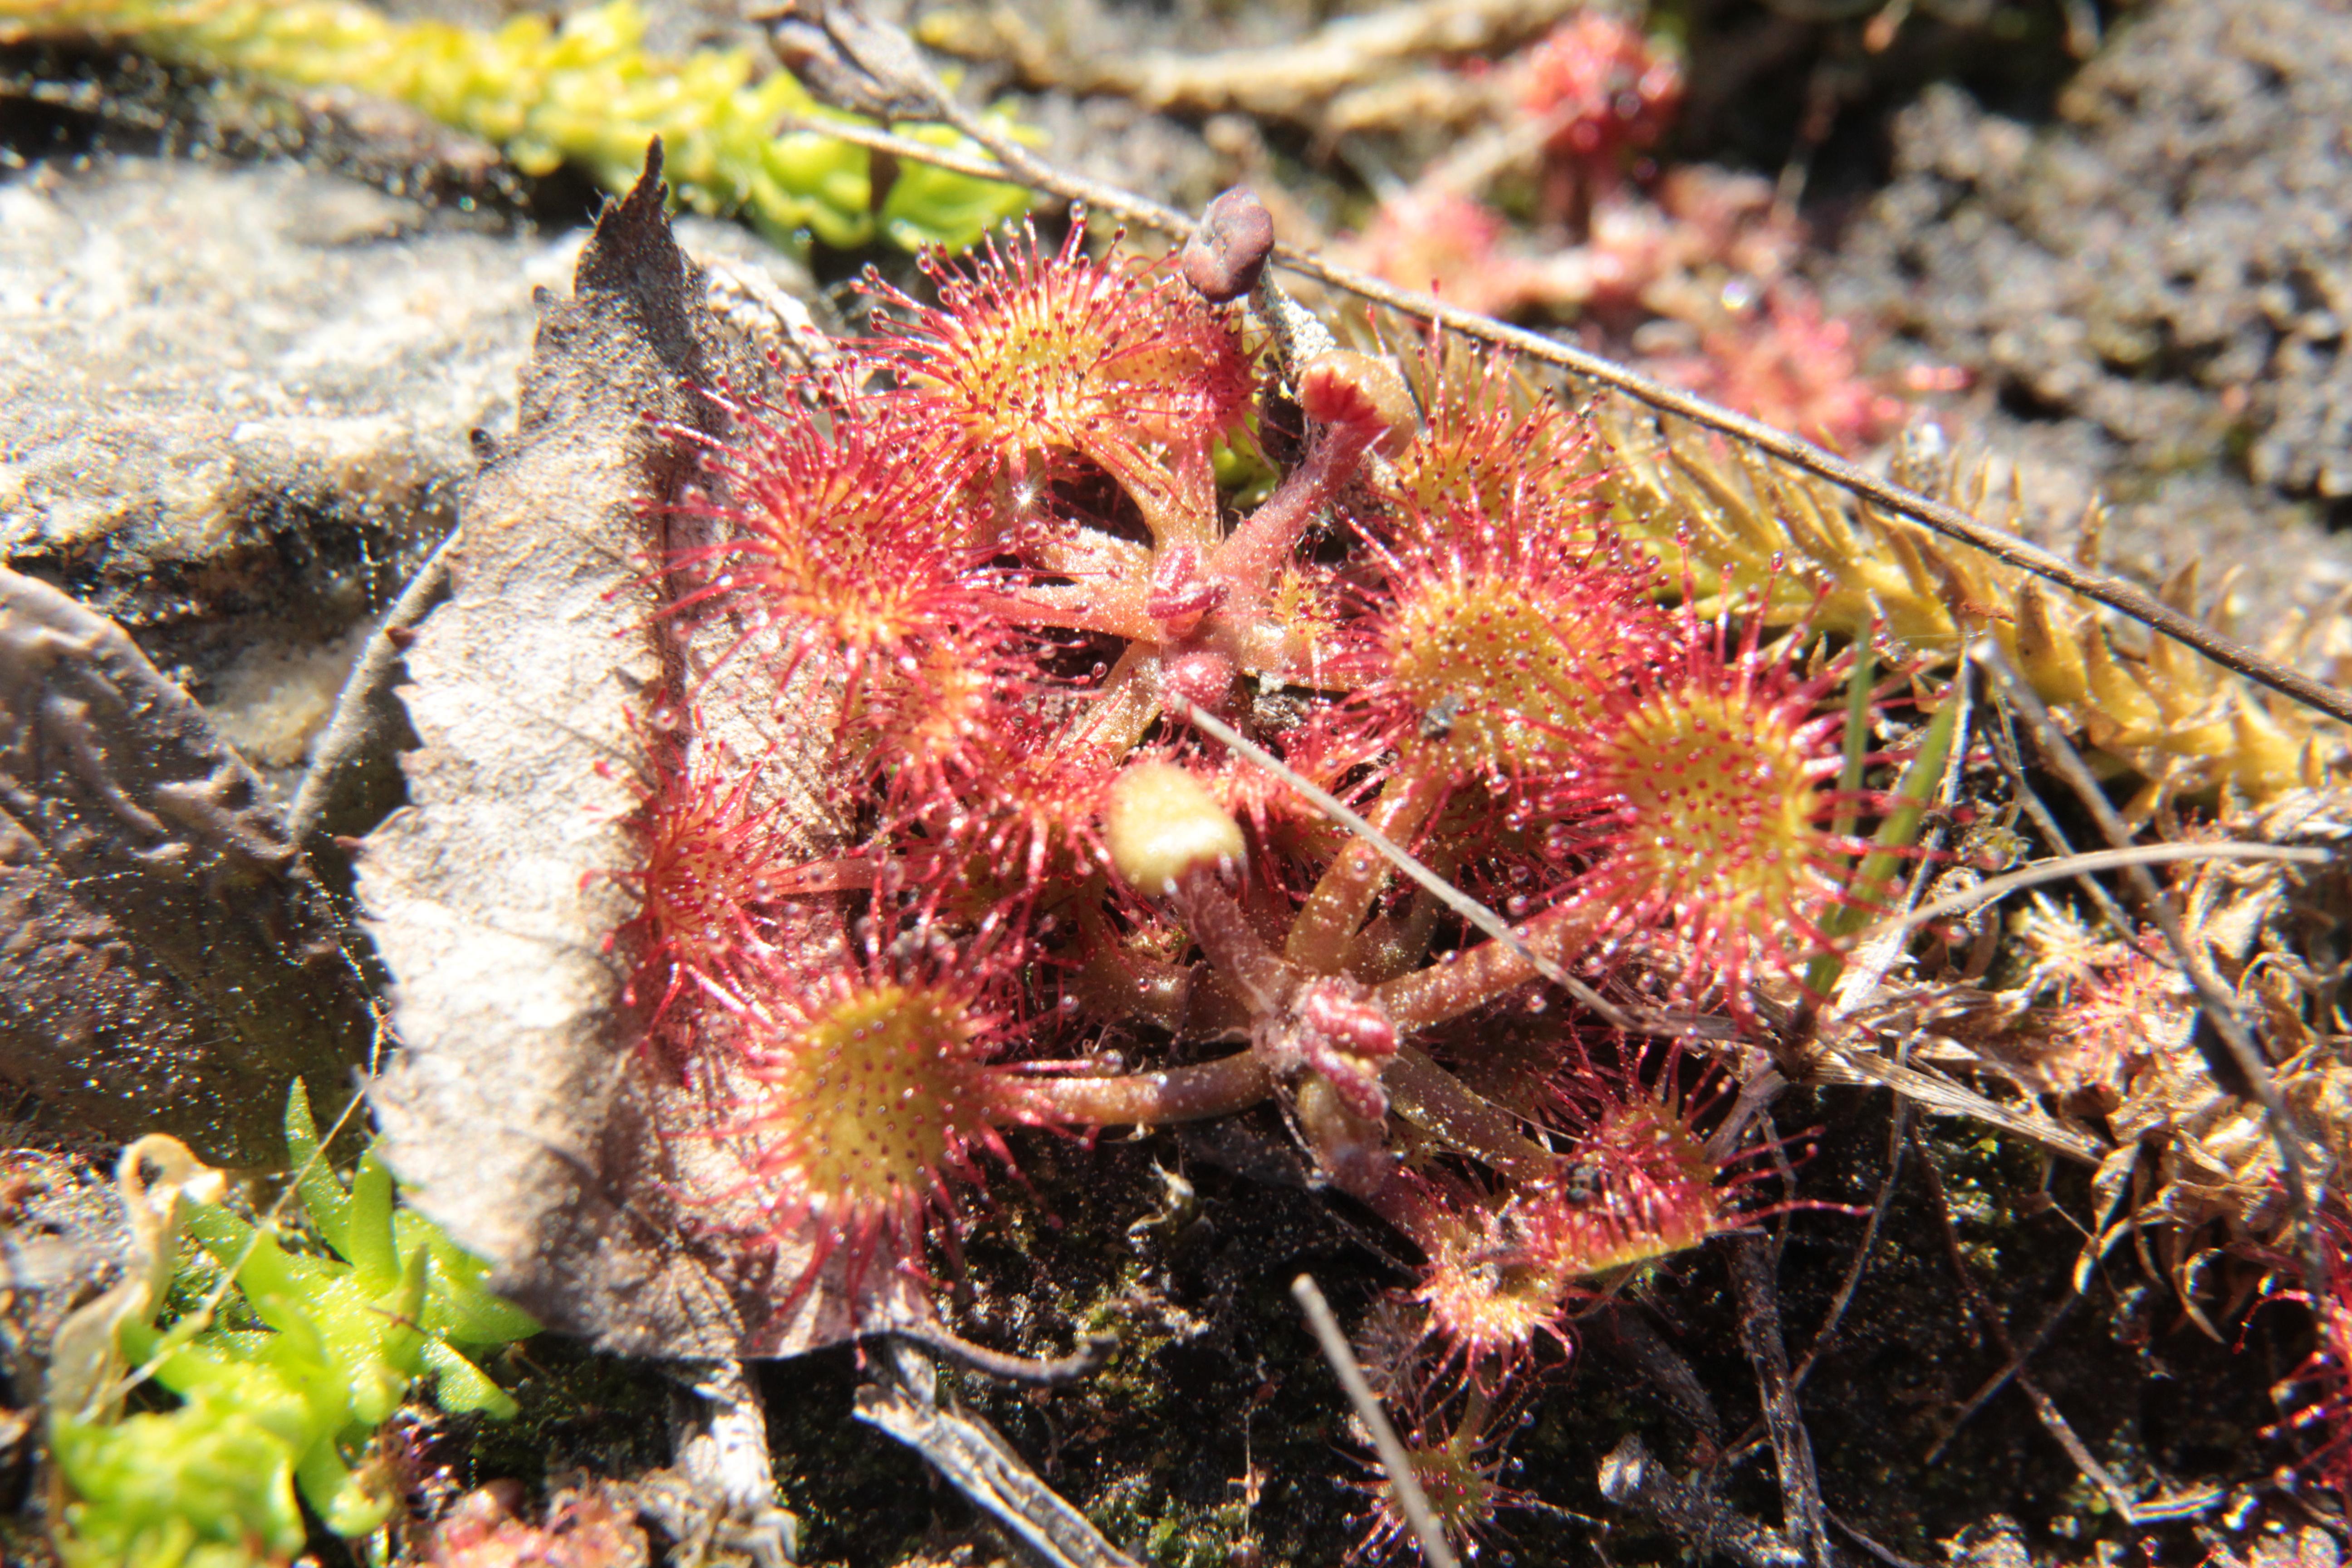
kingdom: Plantae
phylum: Tracheophyta
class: Magnoliopsida
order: Caryophyllales
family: Droseraceae
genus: Drosera
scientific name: Drosera rotundifolia
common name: Round-leaved sundew
